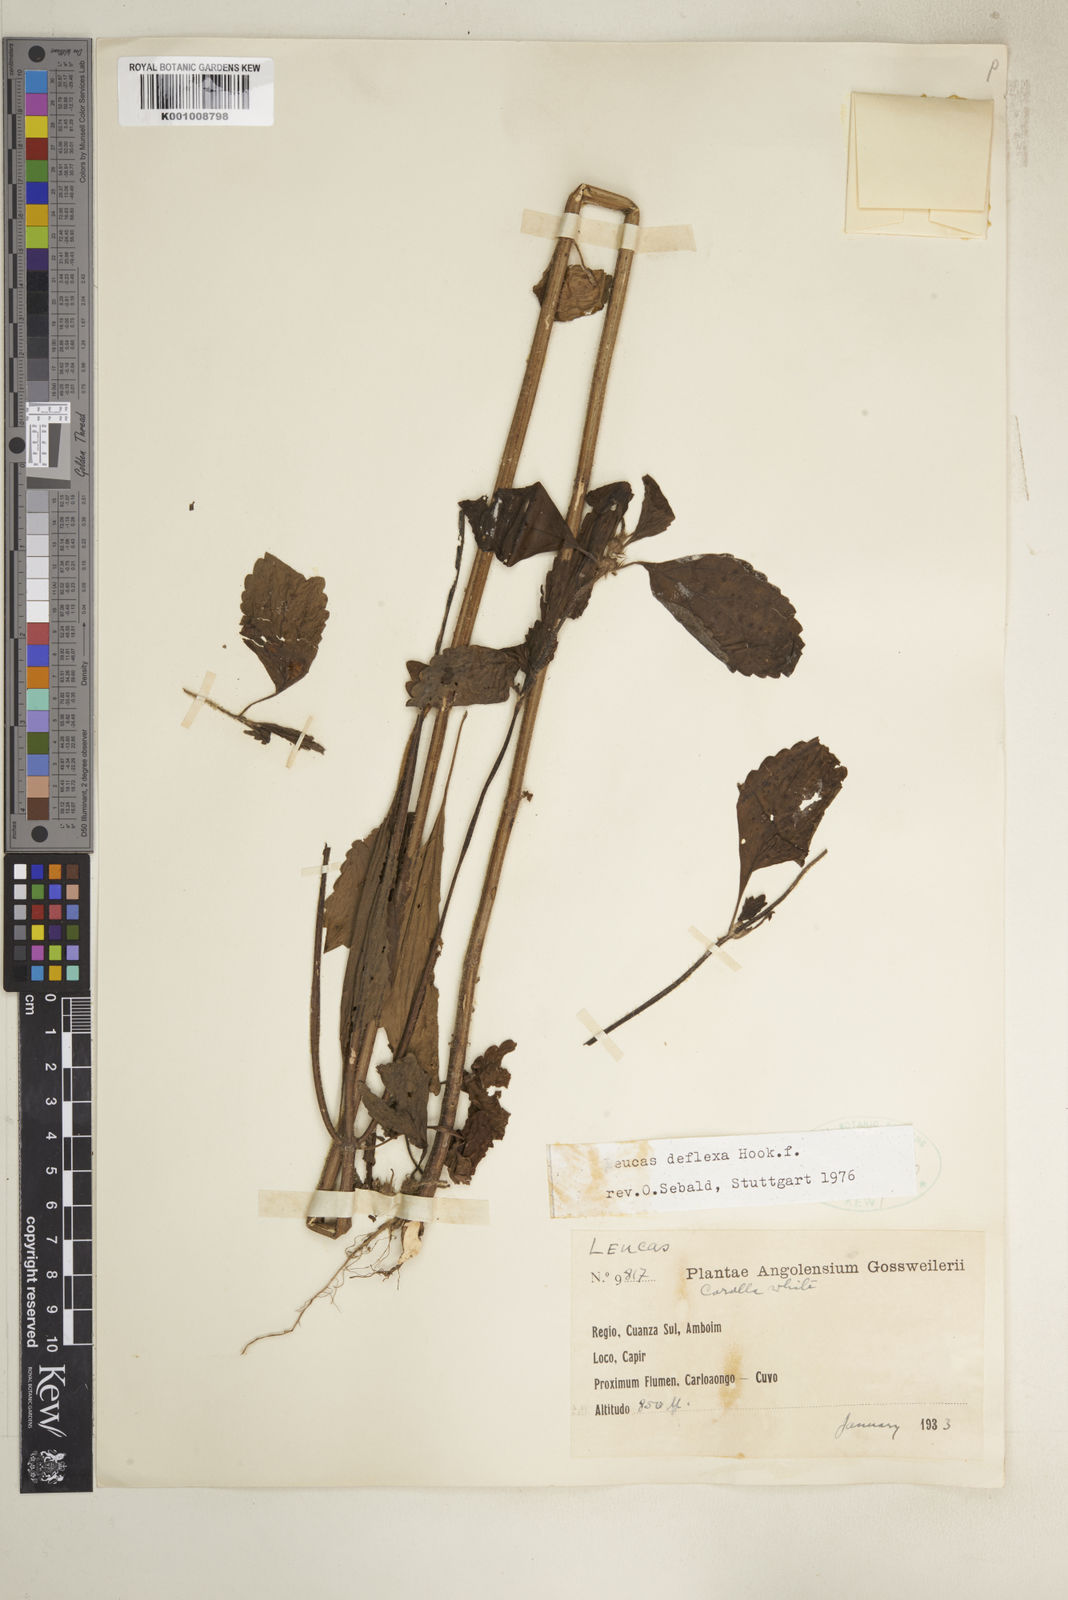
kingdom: Plantae
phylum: Tracheophyta
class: Magnoliopsida
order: Lamiales
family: Lamiaceae
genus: Leucas
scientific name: Leucas deflexa
